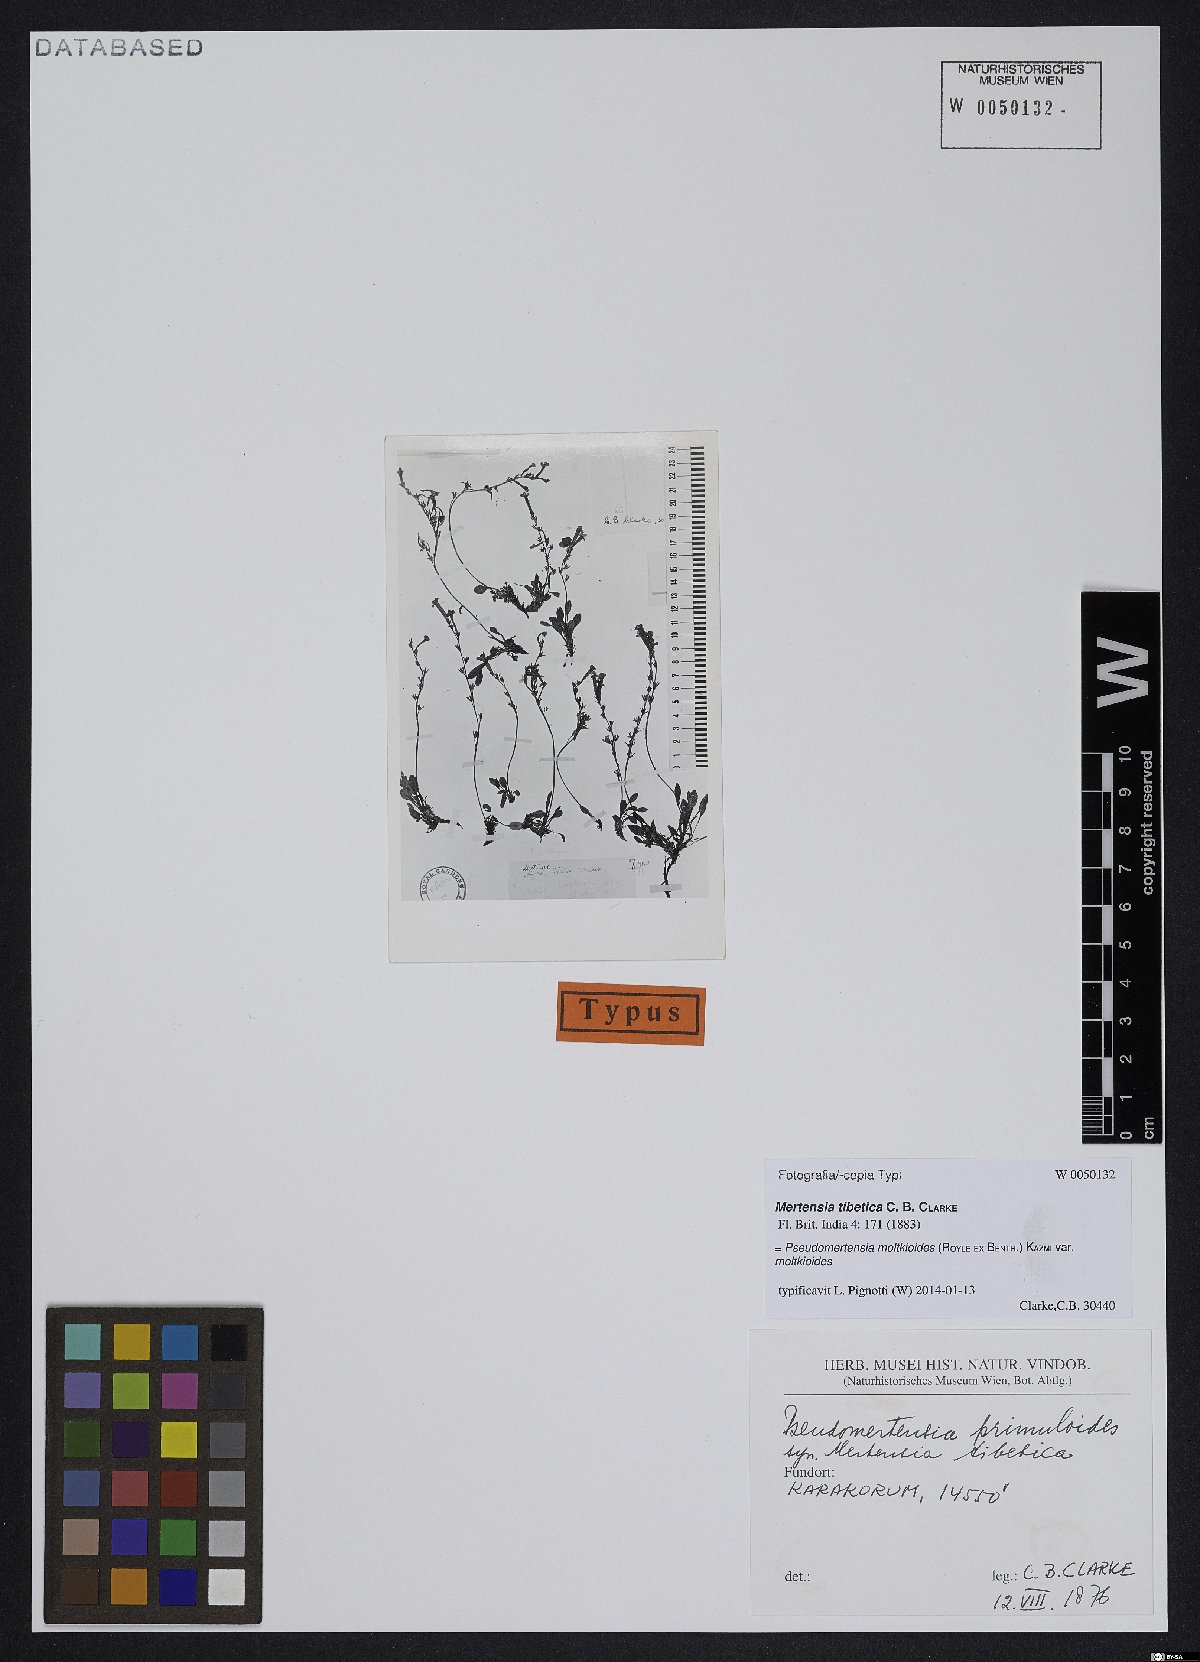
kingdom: Plantae
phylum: Tracheophyta
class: Magnoliopsida
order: Boraginales
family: Boraginaceae
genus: Decalepidanthus
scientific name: Decalepidanthus moltkioides
